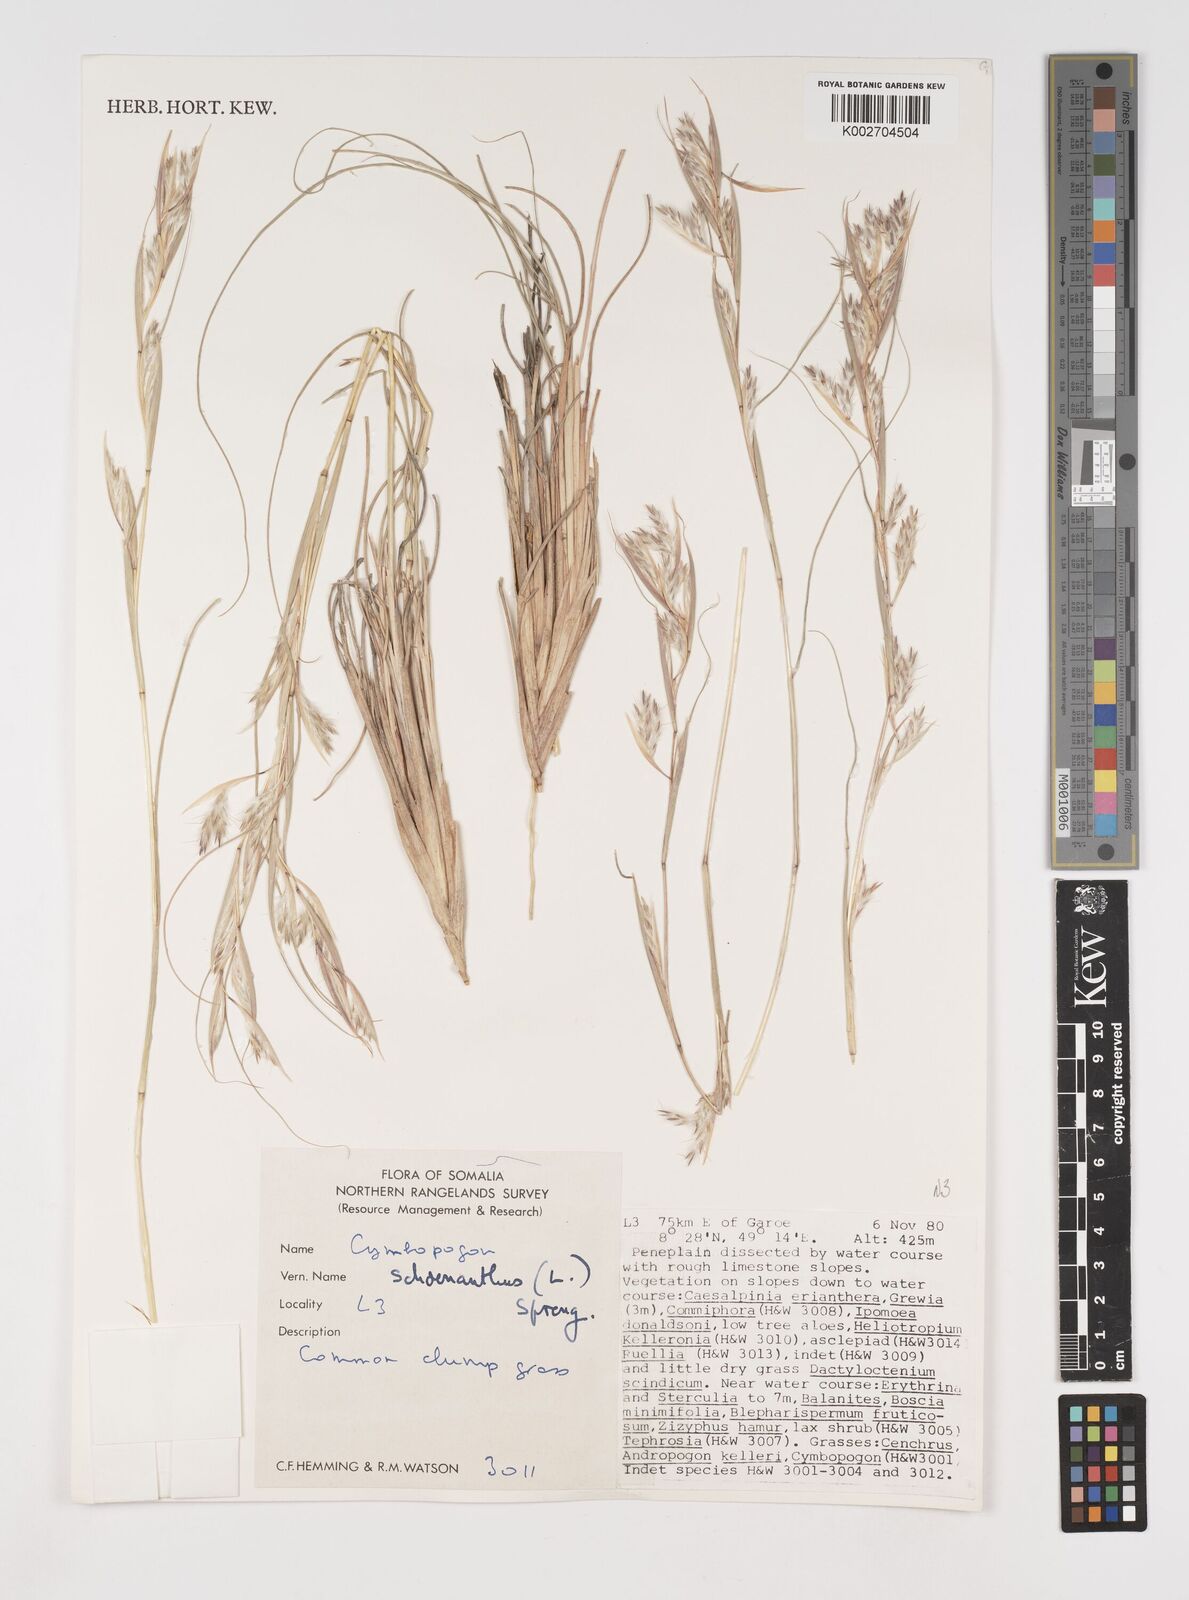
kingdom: Plantae
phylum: Tracheophyta
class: Liliopsida
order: Poales
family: Poaceae
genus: Cymbopogon
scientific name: Cymbopogon schoenanthus
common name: Geranium grass
